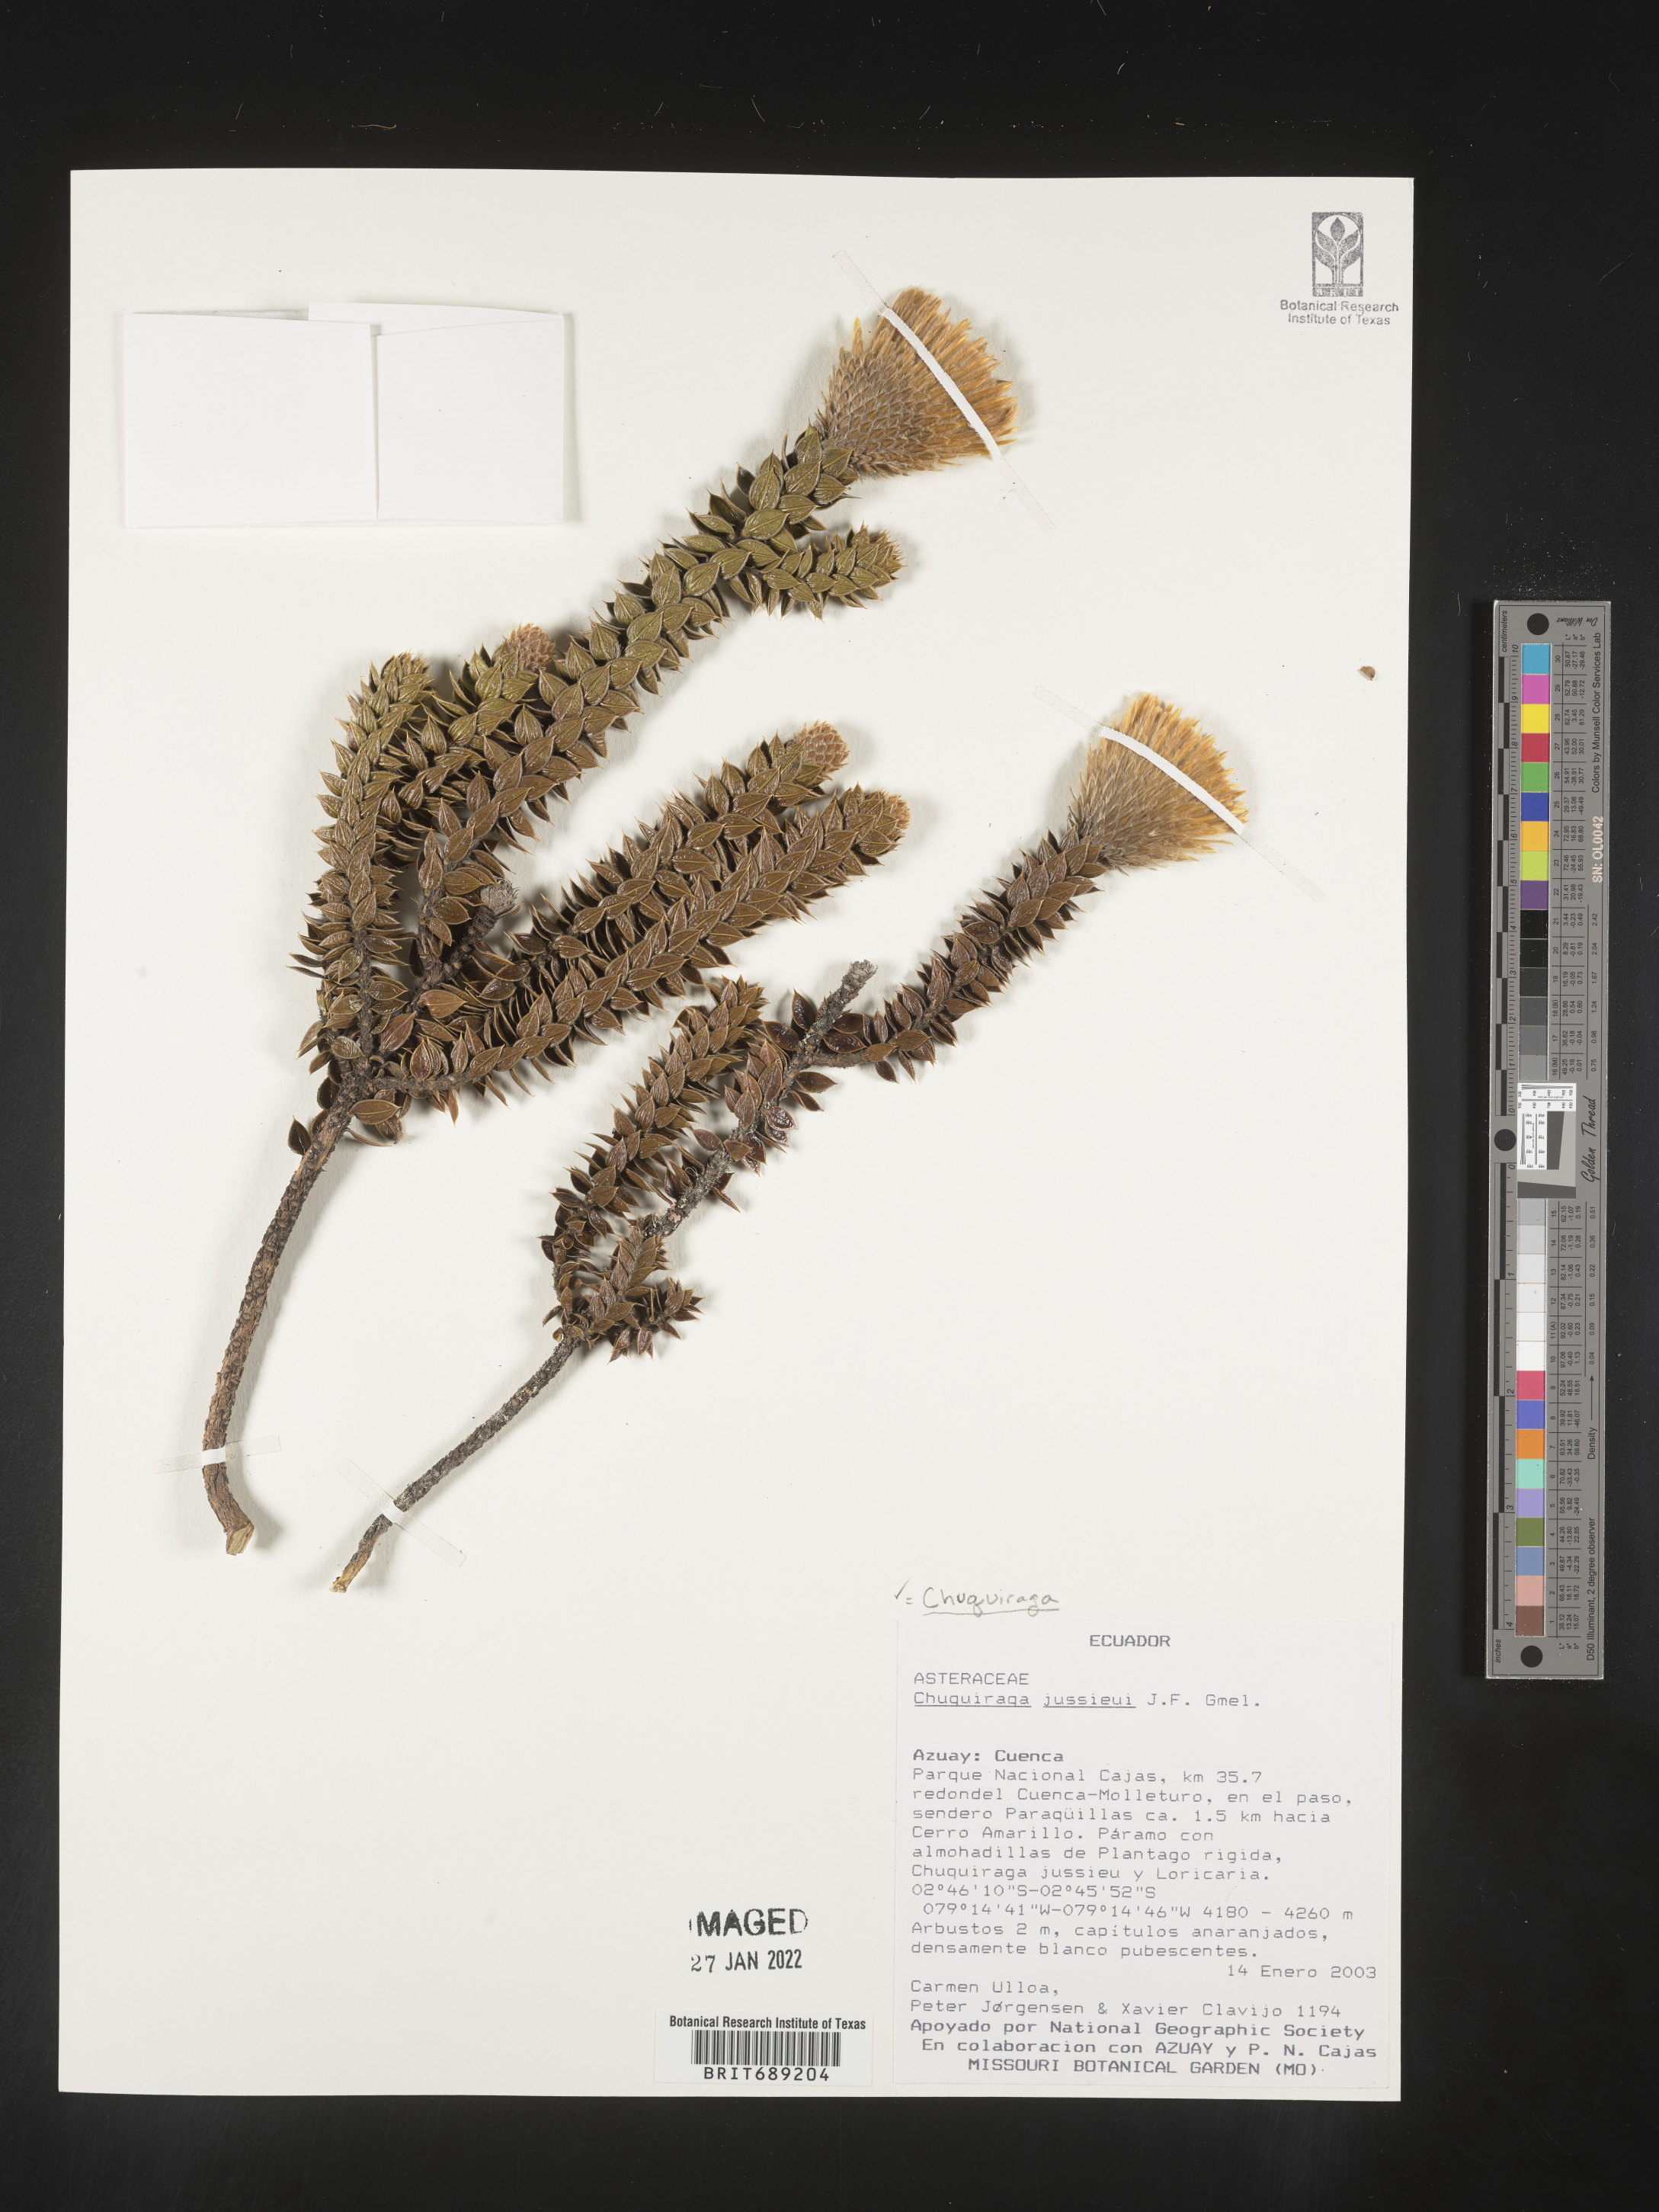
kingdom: Plantae
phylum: Tracheophyta
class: Magnoliopsida
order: Asterales
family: Asteraceae
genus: Chuquiraga
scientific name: Chuquiraga
